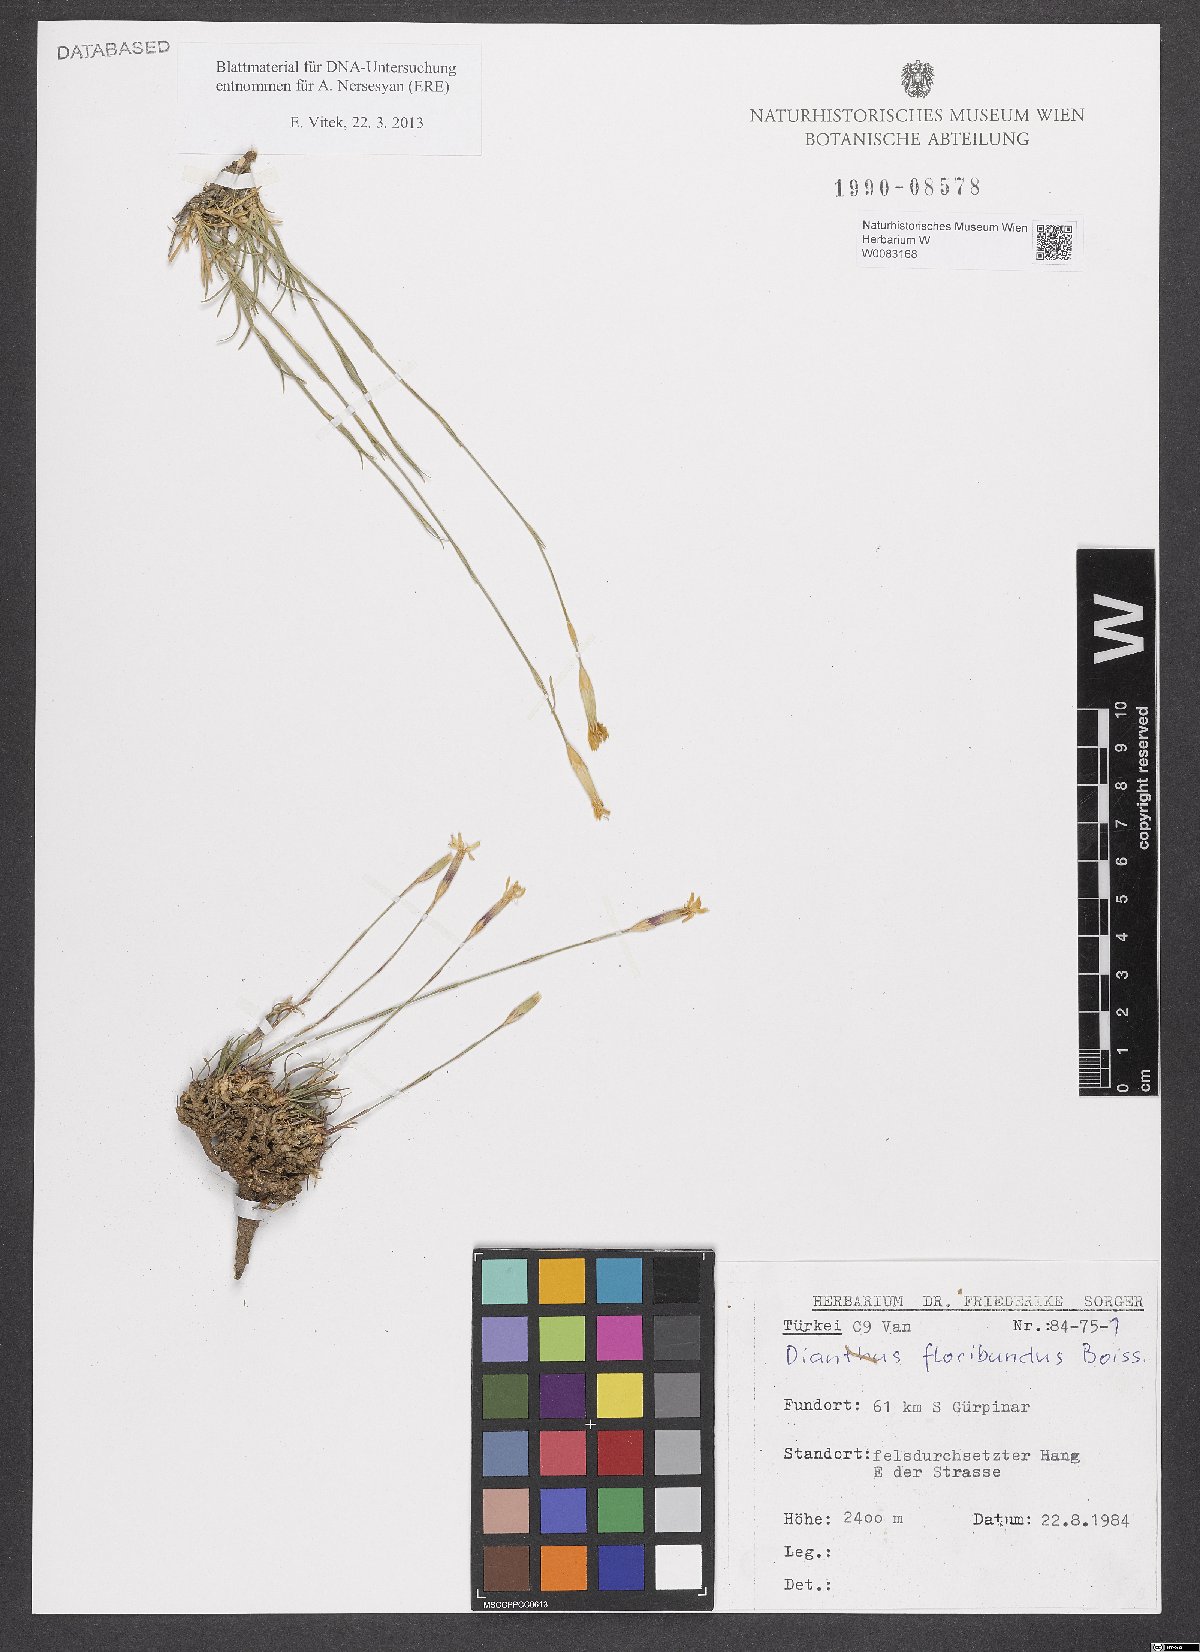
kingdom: Plantae
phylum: Tracheophyta
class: Magnoliopsida
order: Caryophyllales
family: Caryophyllaceae
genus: Dianthus
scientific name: Dianthus floribundus
